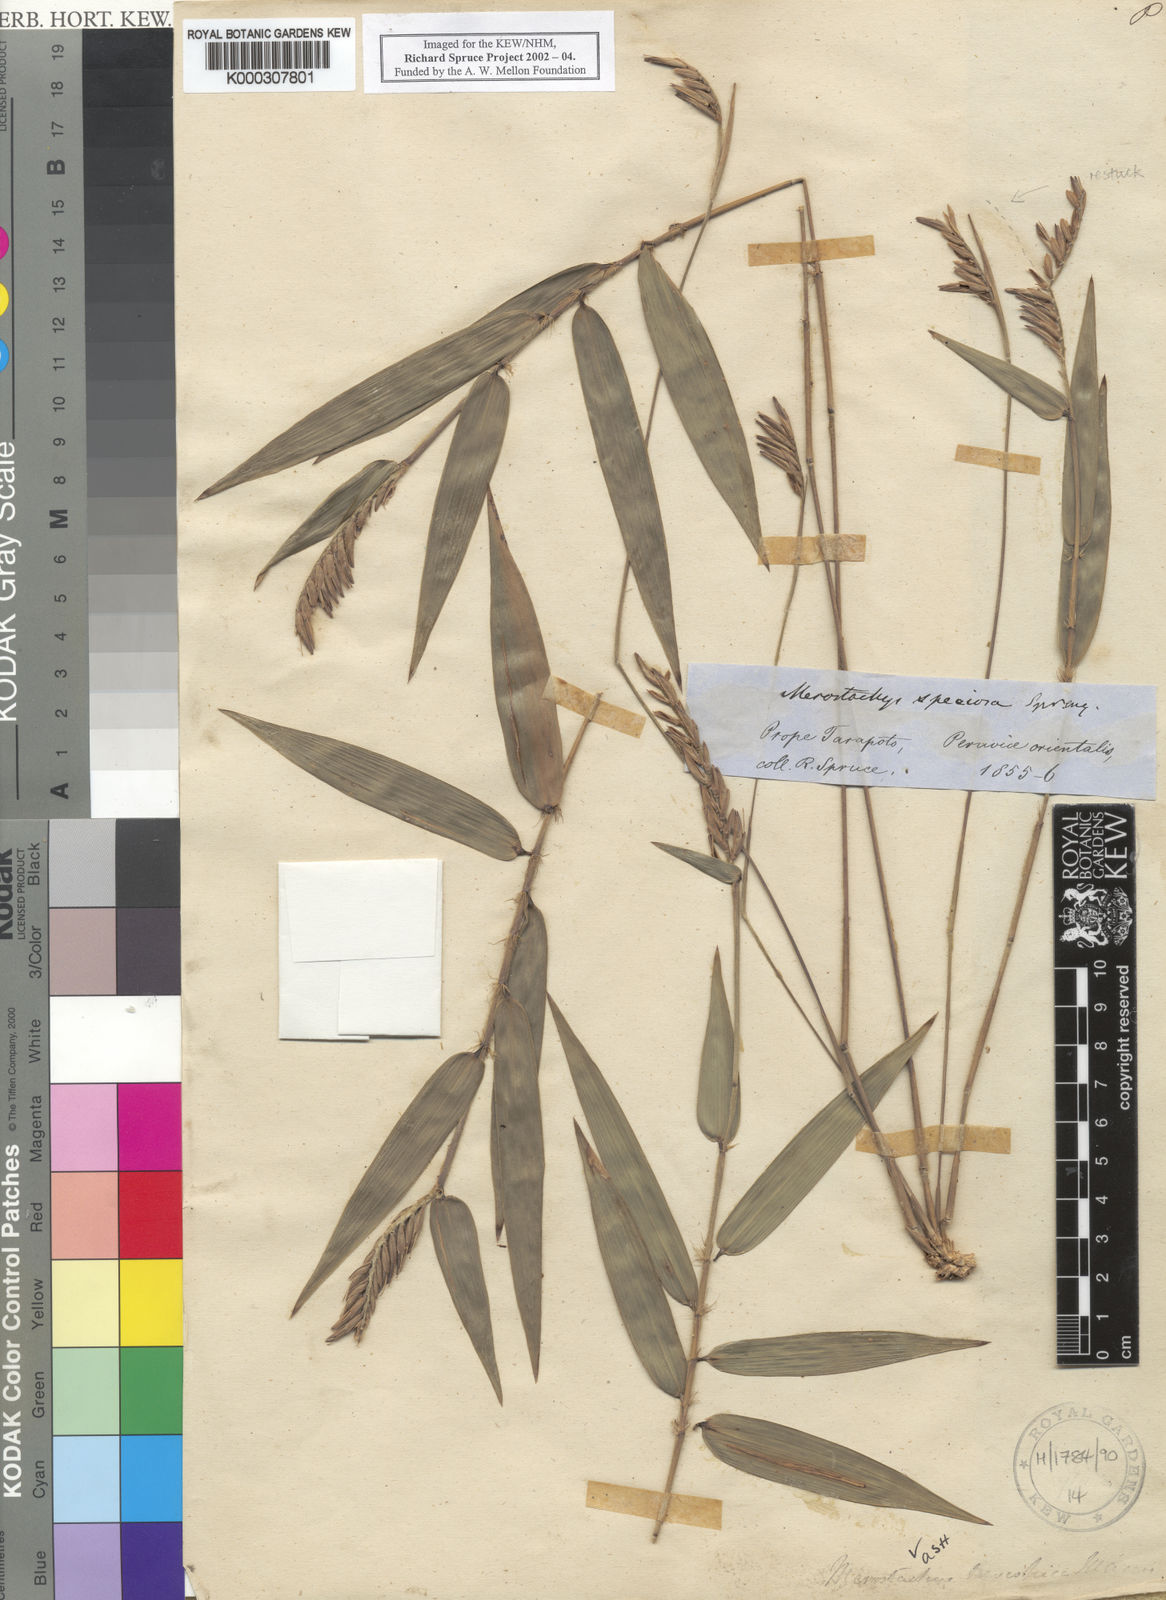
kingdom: Plantae
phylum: Tracheophyta
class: Liliopsida
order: Poales
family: Poaceae
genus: Merostachys
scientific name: Merostachys brevispica
